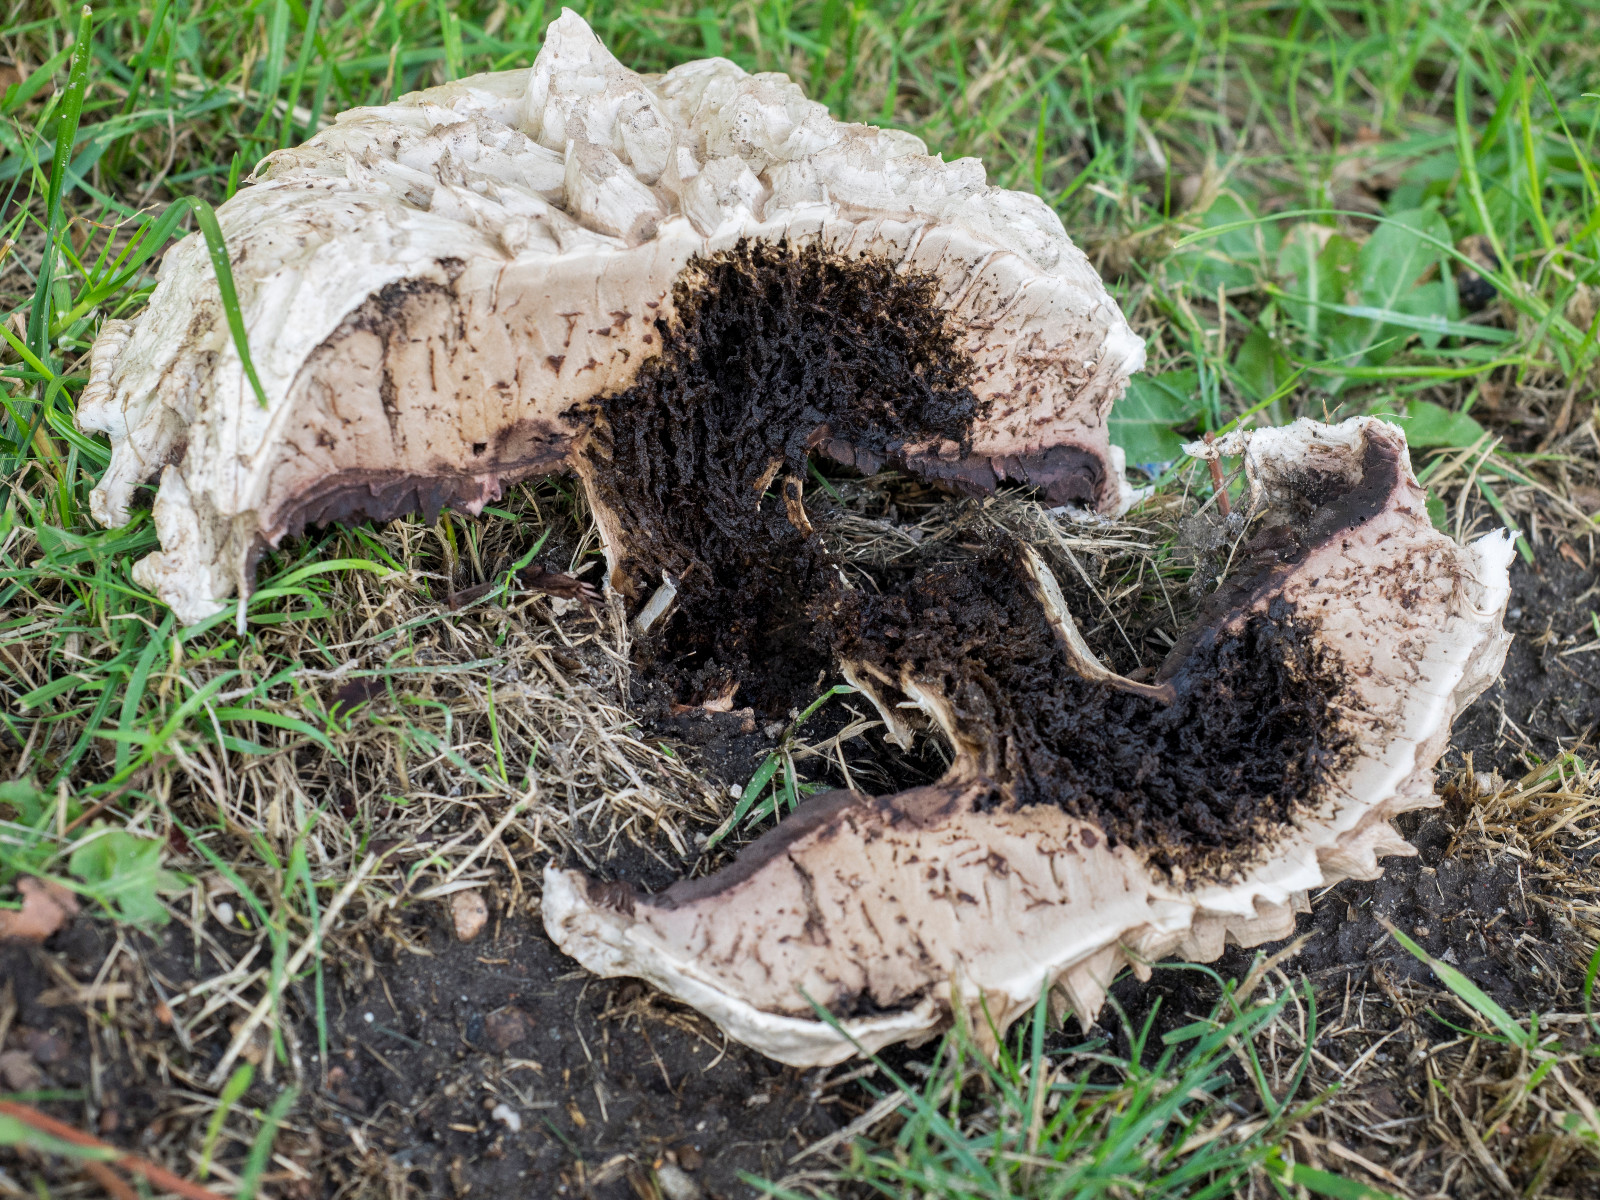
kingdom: Fungi
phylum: Basidiomycota
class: Agaricomycetes
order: Agaricales
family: Agaricaceae
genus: Agaricus
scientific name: Agaricus bernardii
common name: strandengs-champignon
